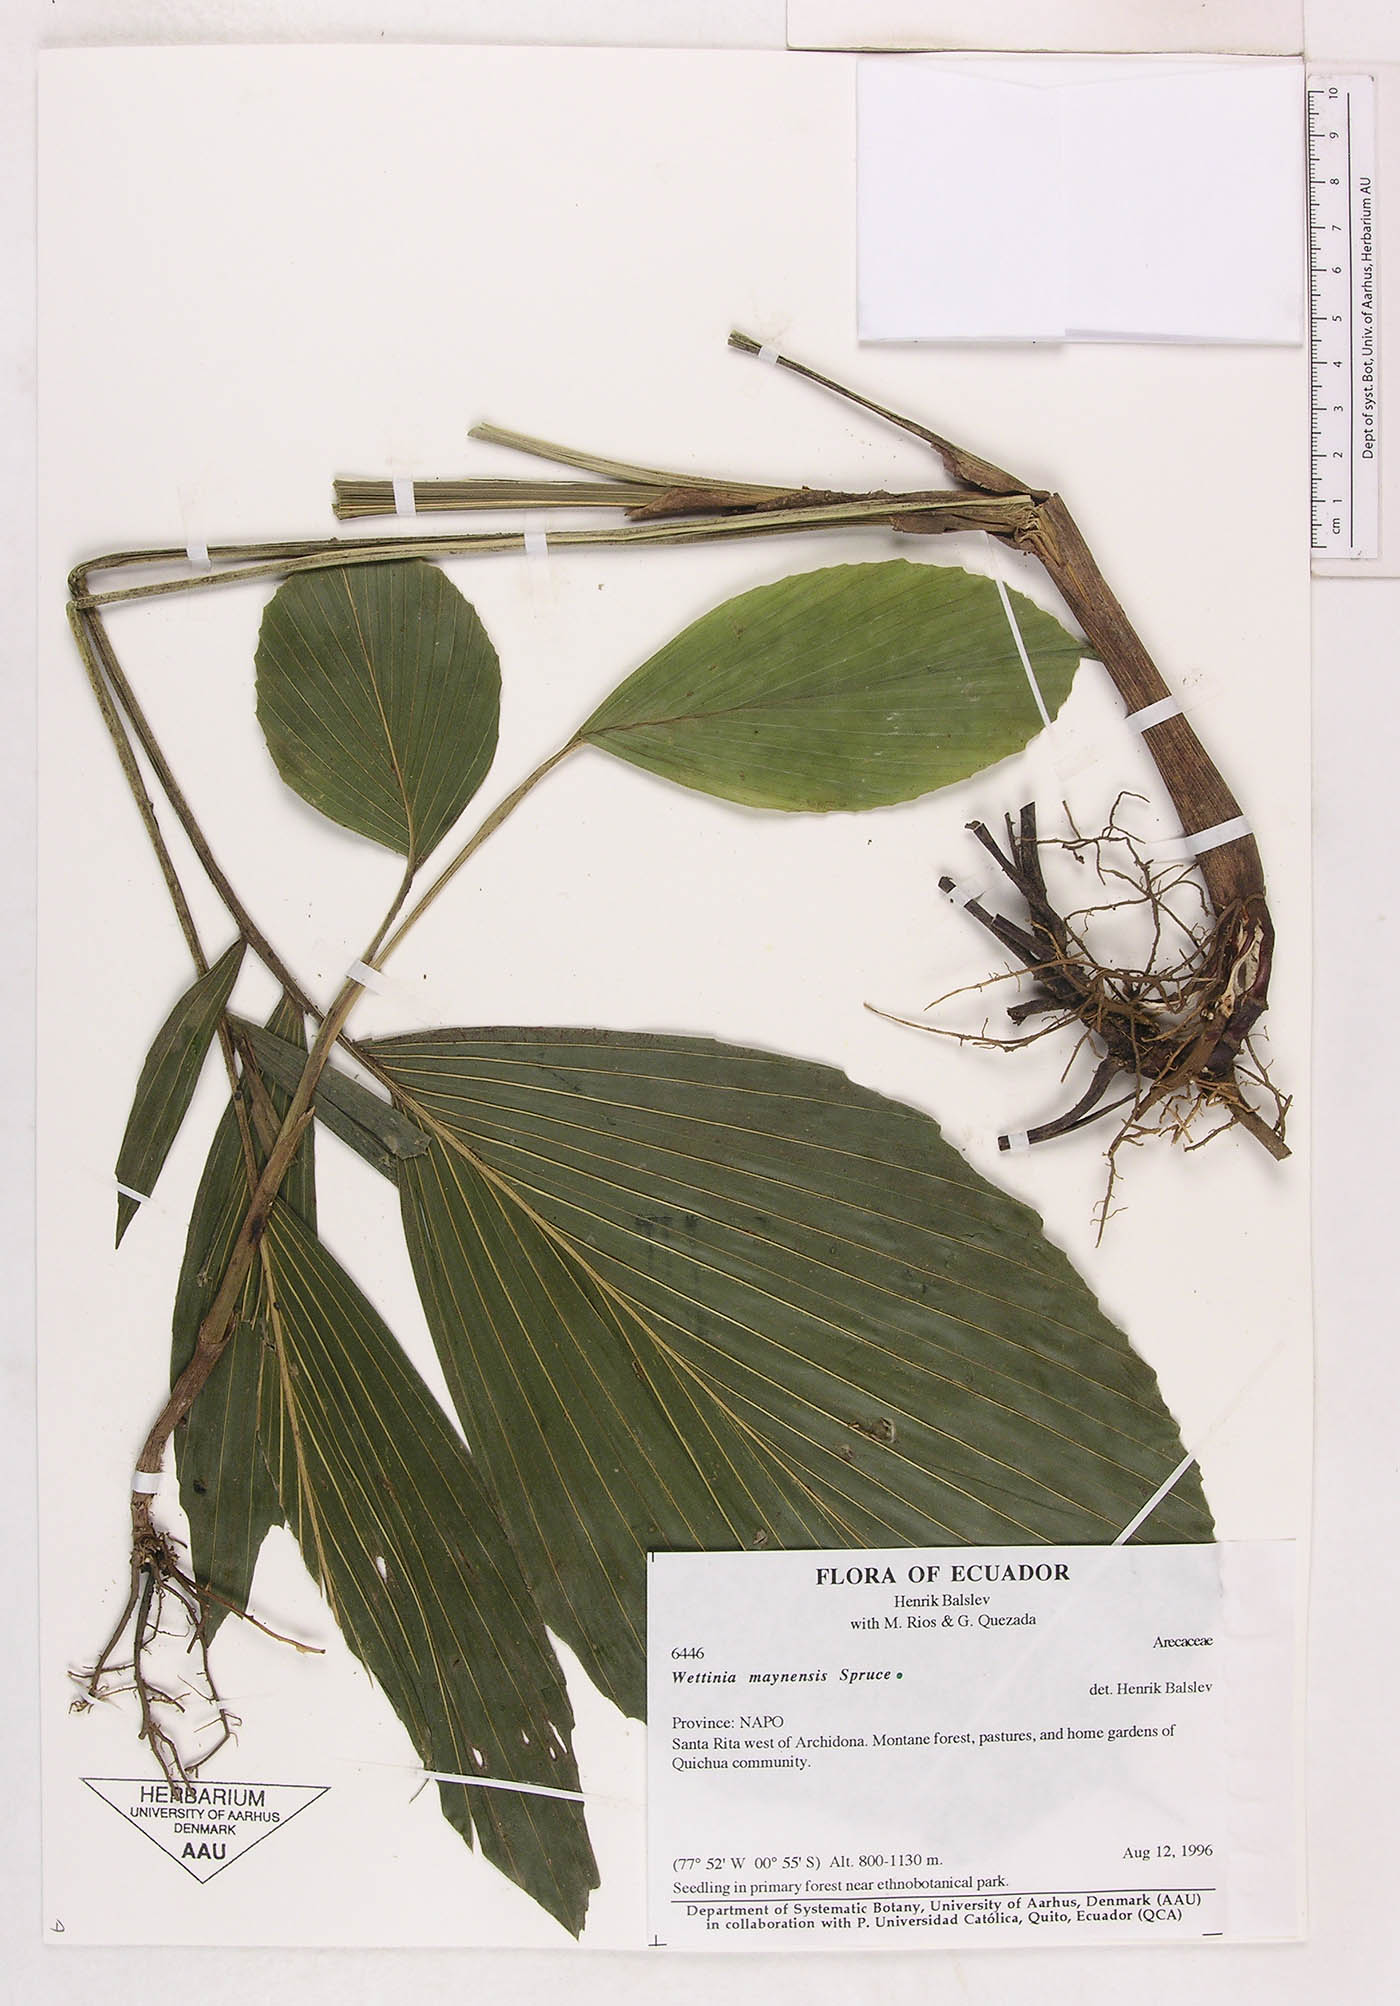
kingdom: Plantae
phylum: Tracheophyta
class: Liliopsida
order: Arecales
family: Arecaceae
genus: Wettinia
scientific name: Wettinia maynensis
